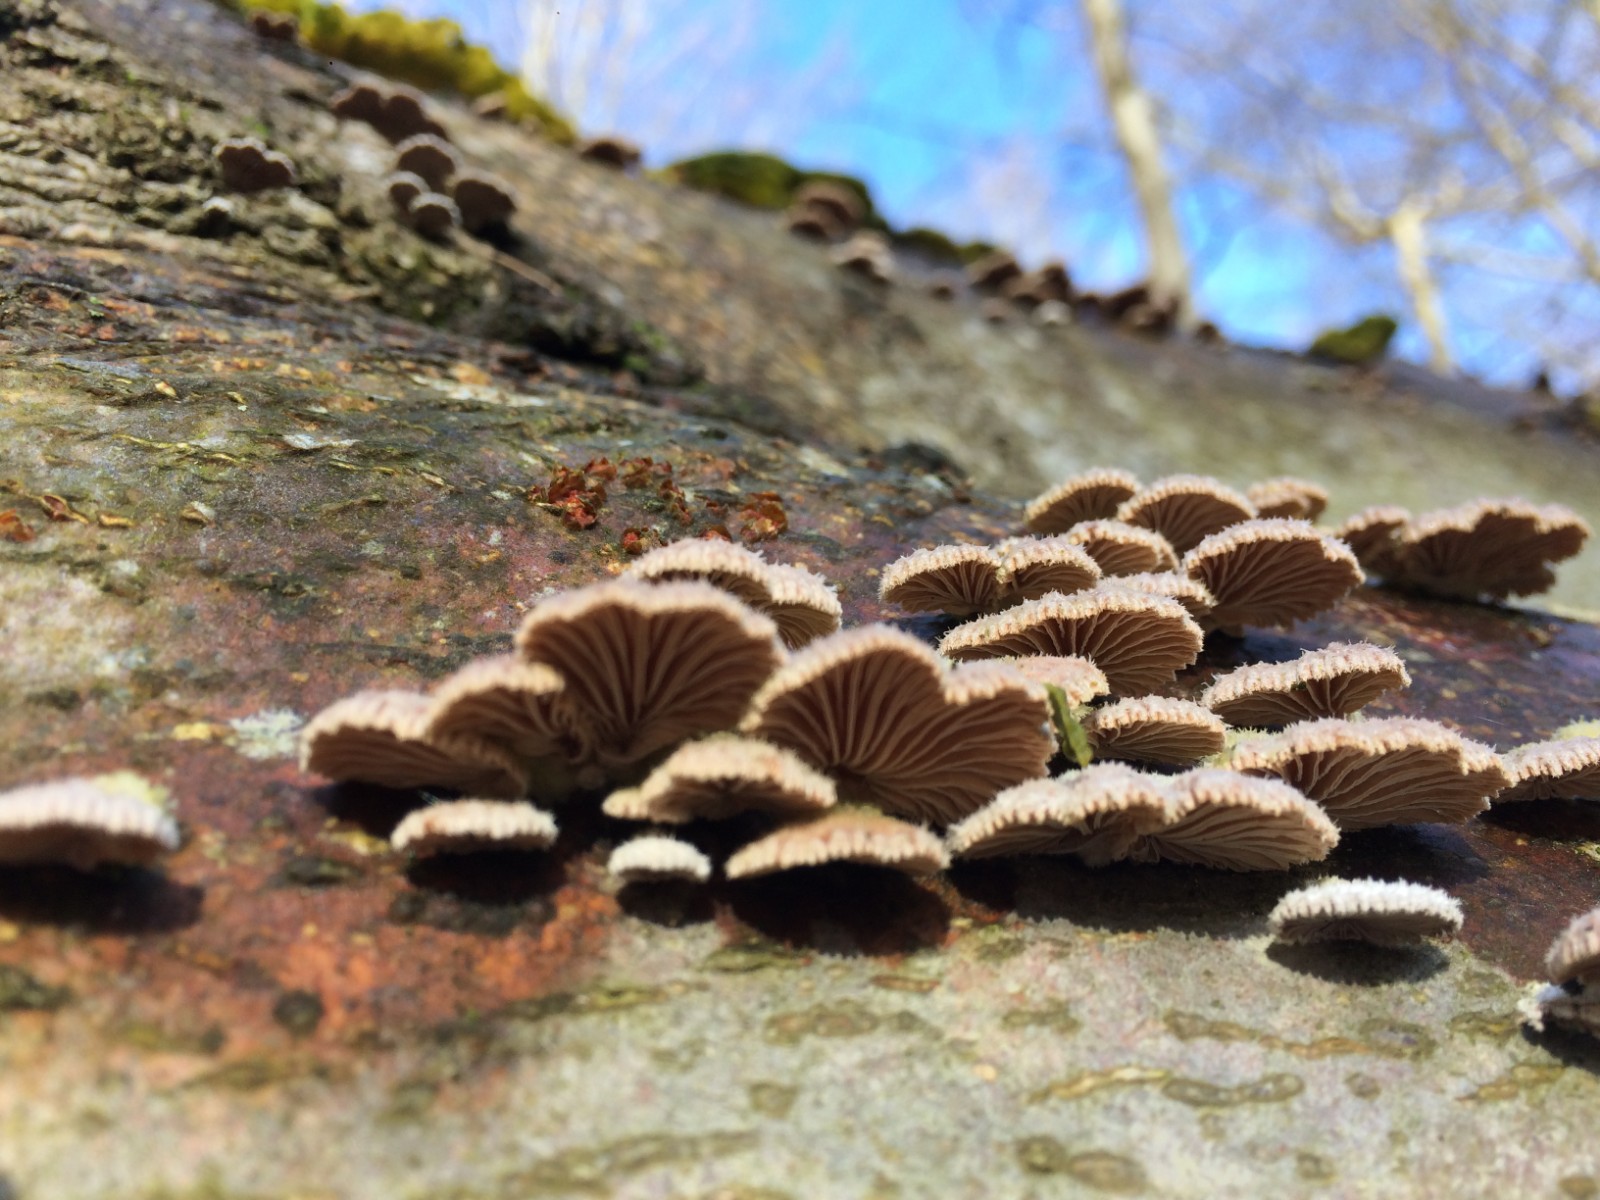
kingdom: Fungi
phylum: Basidiomycota
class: Agaricomycetes
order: Agaricales
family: Schizophyllaceae
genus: Schizophyllum
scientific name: Schizophyllum commune
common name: kløvblad
